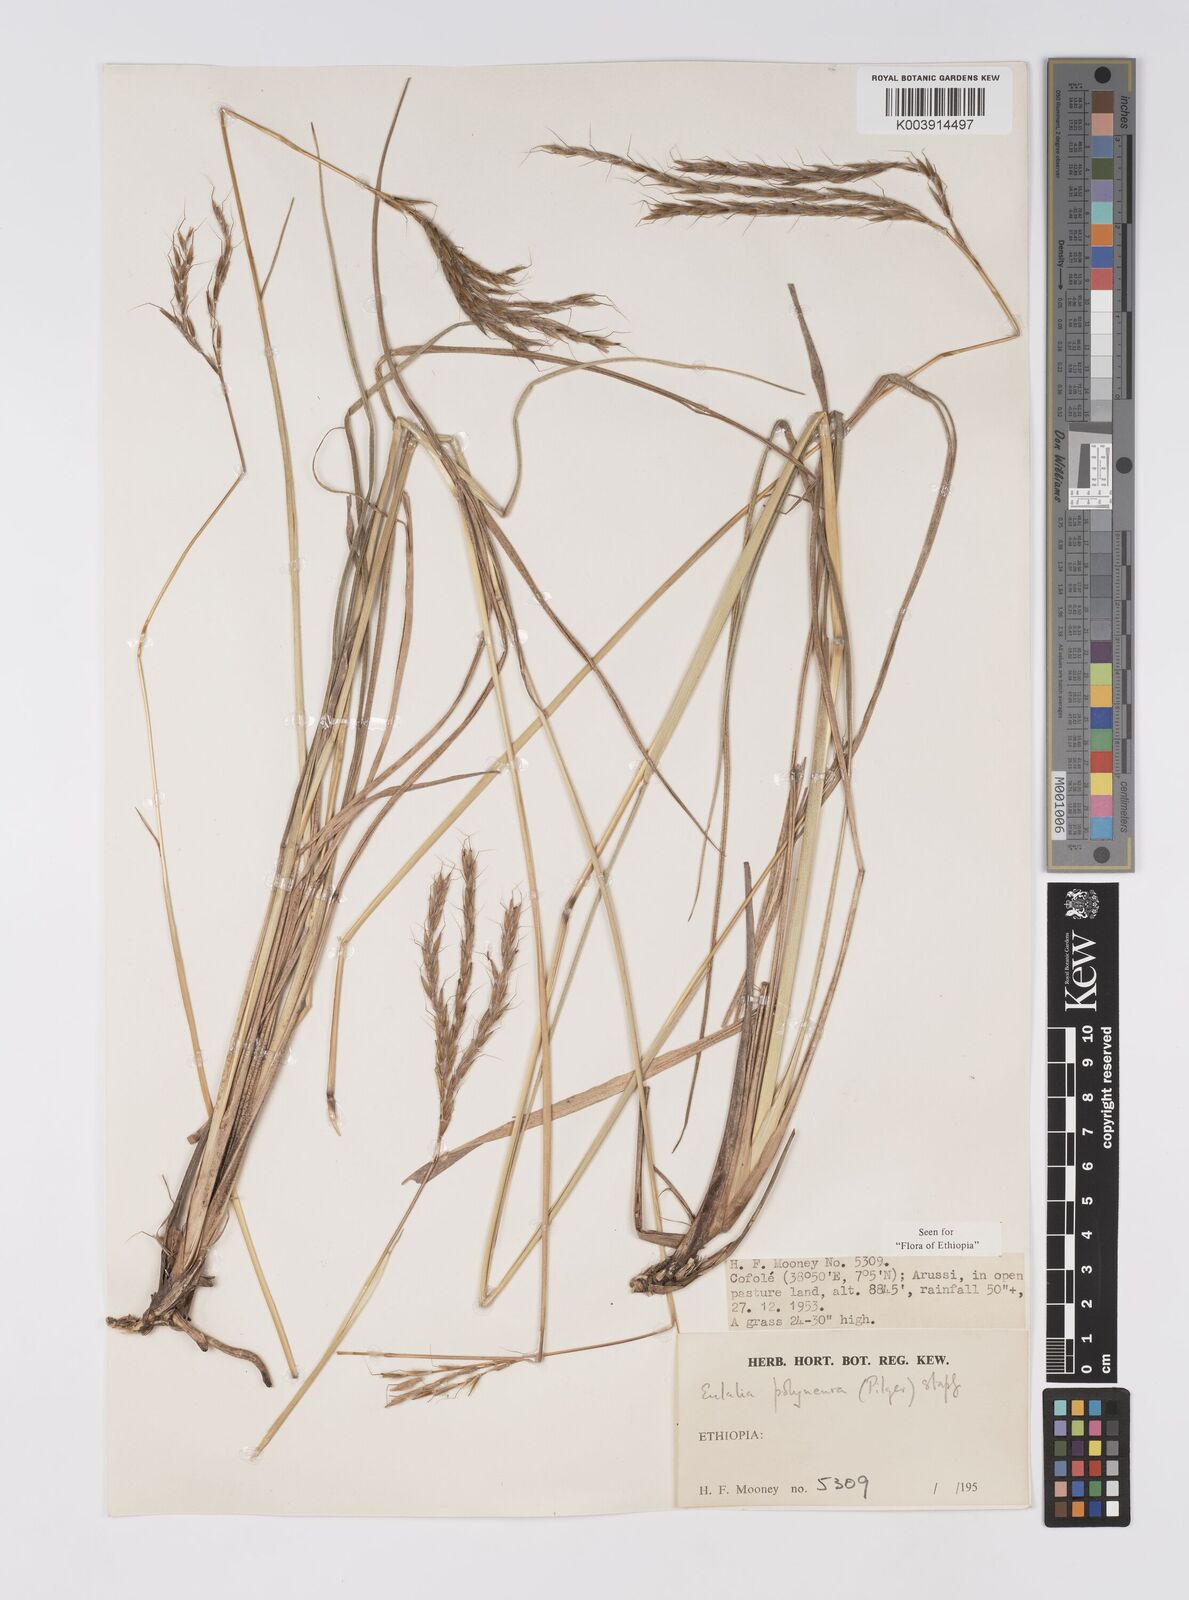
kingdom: Plantae
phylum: Tracheophyta
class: Liliopsida
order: Poales
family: Poaceae
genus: Eulalia
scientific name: Eulalia polyneura
